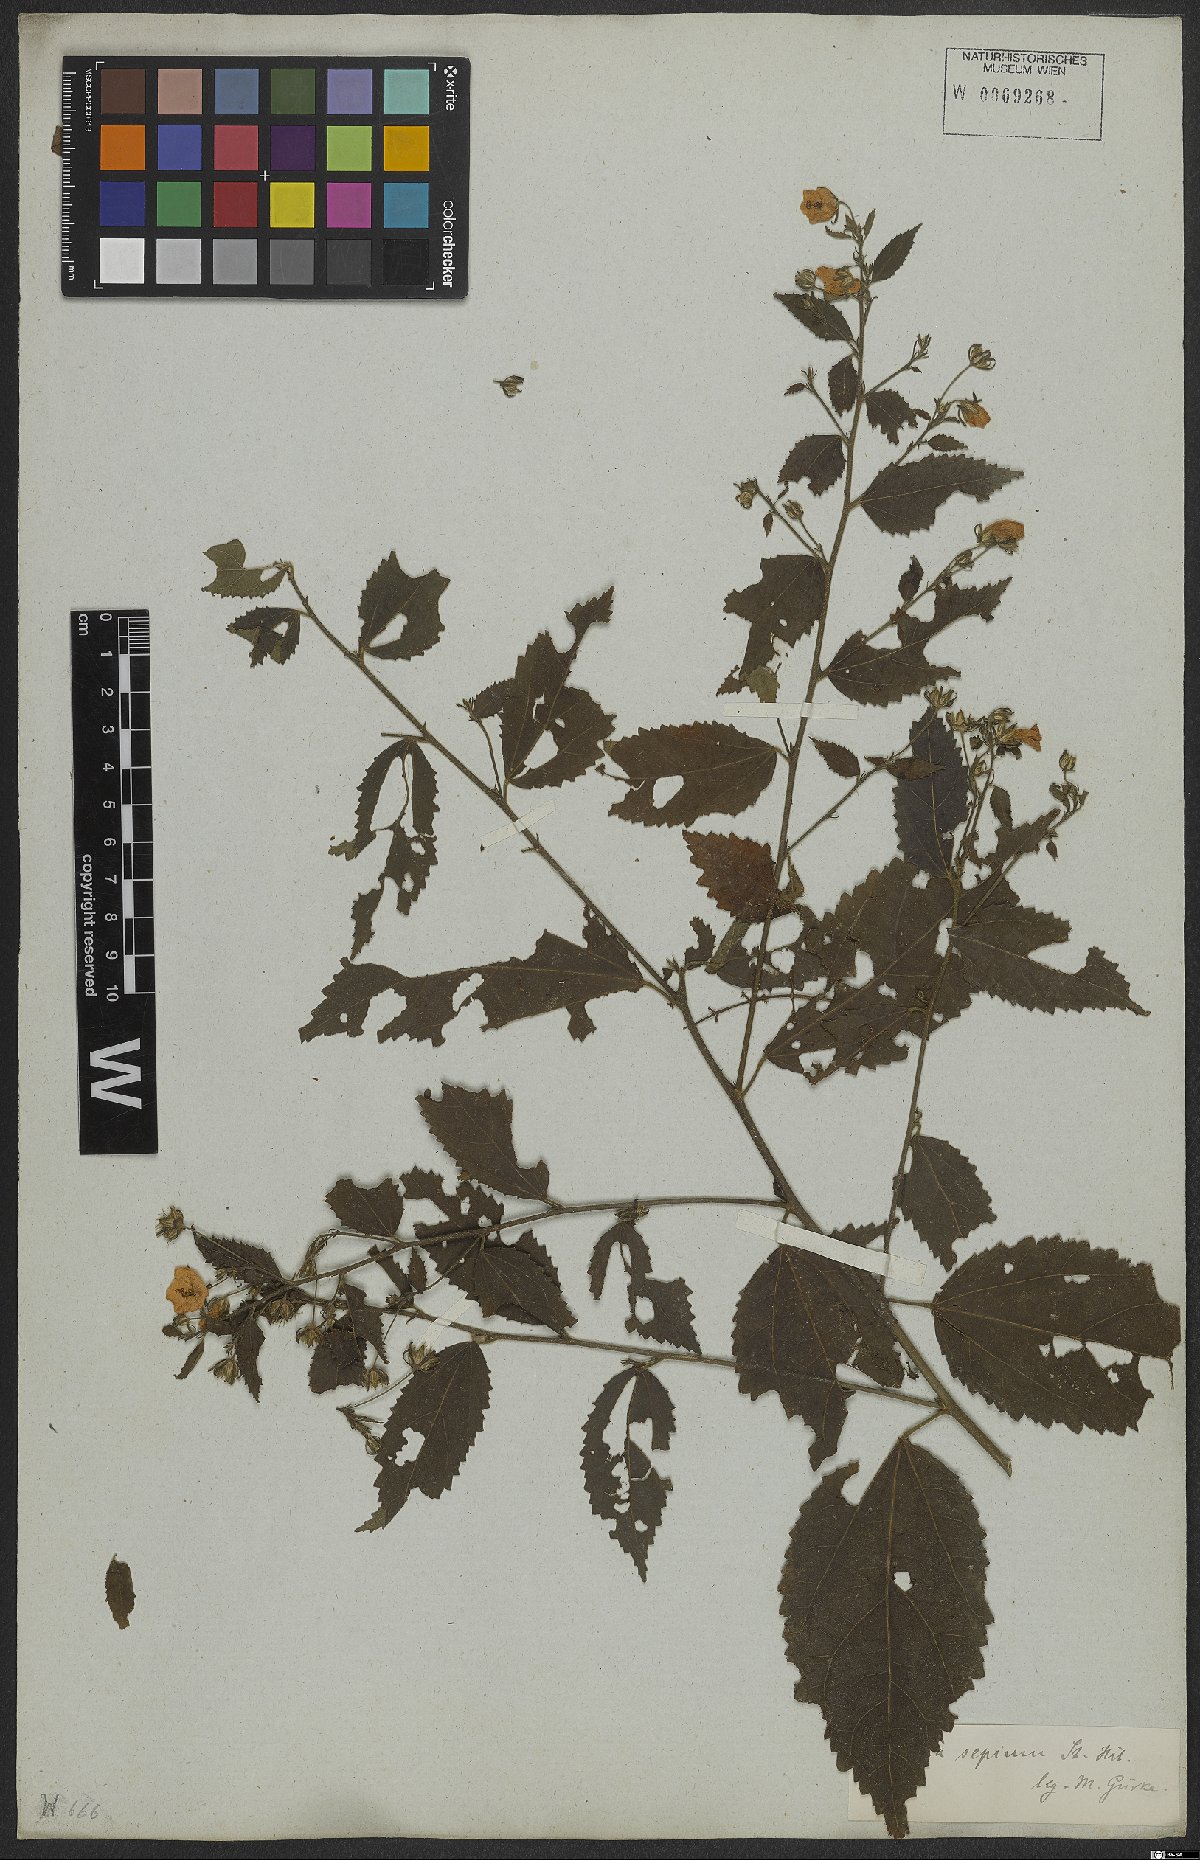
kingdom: Plantae
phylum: Tracheophyta
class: Magnoliopsida
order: Malvales
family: Malvaceae
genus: Pavonia
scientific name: Pavonia sepium
